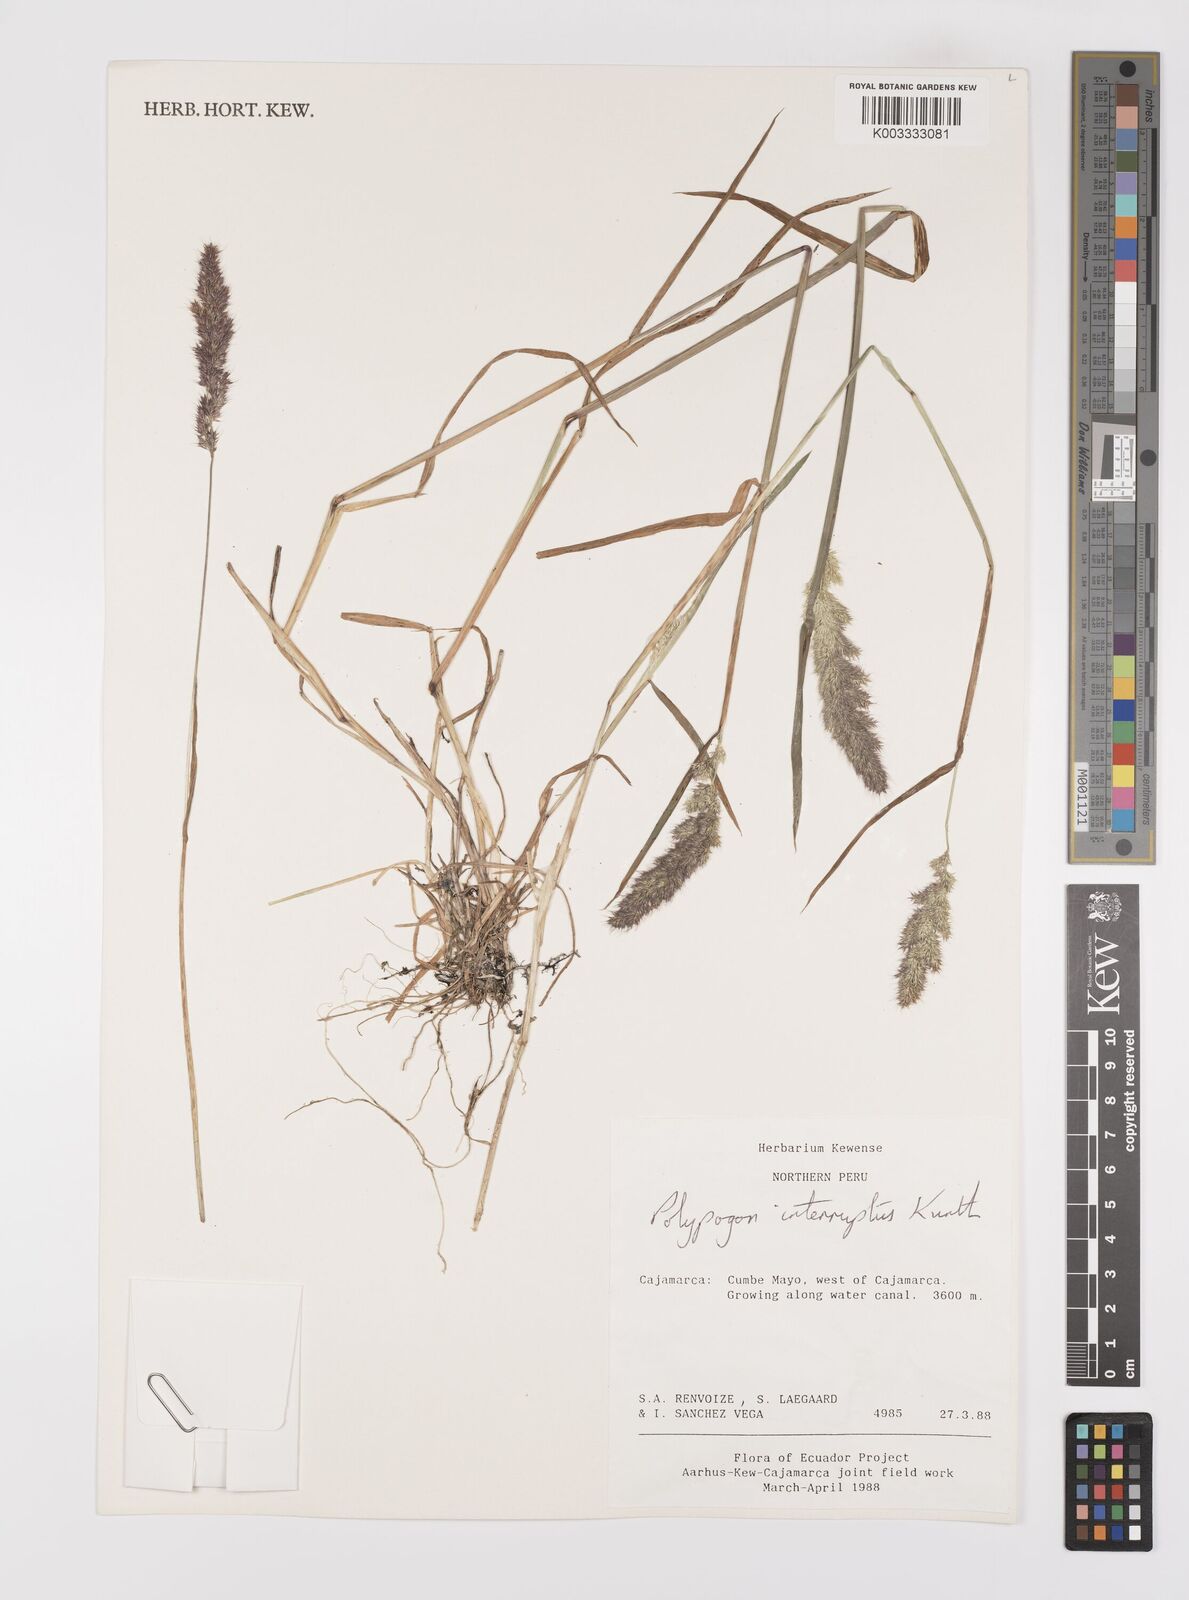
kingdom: Plantae
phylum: Tracheophyta
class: Liliopsida
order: Poales
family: Poaceae
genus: Polypogon
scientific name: Polypogon interruptus
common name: Ditch polypogon
